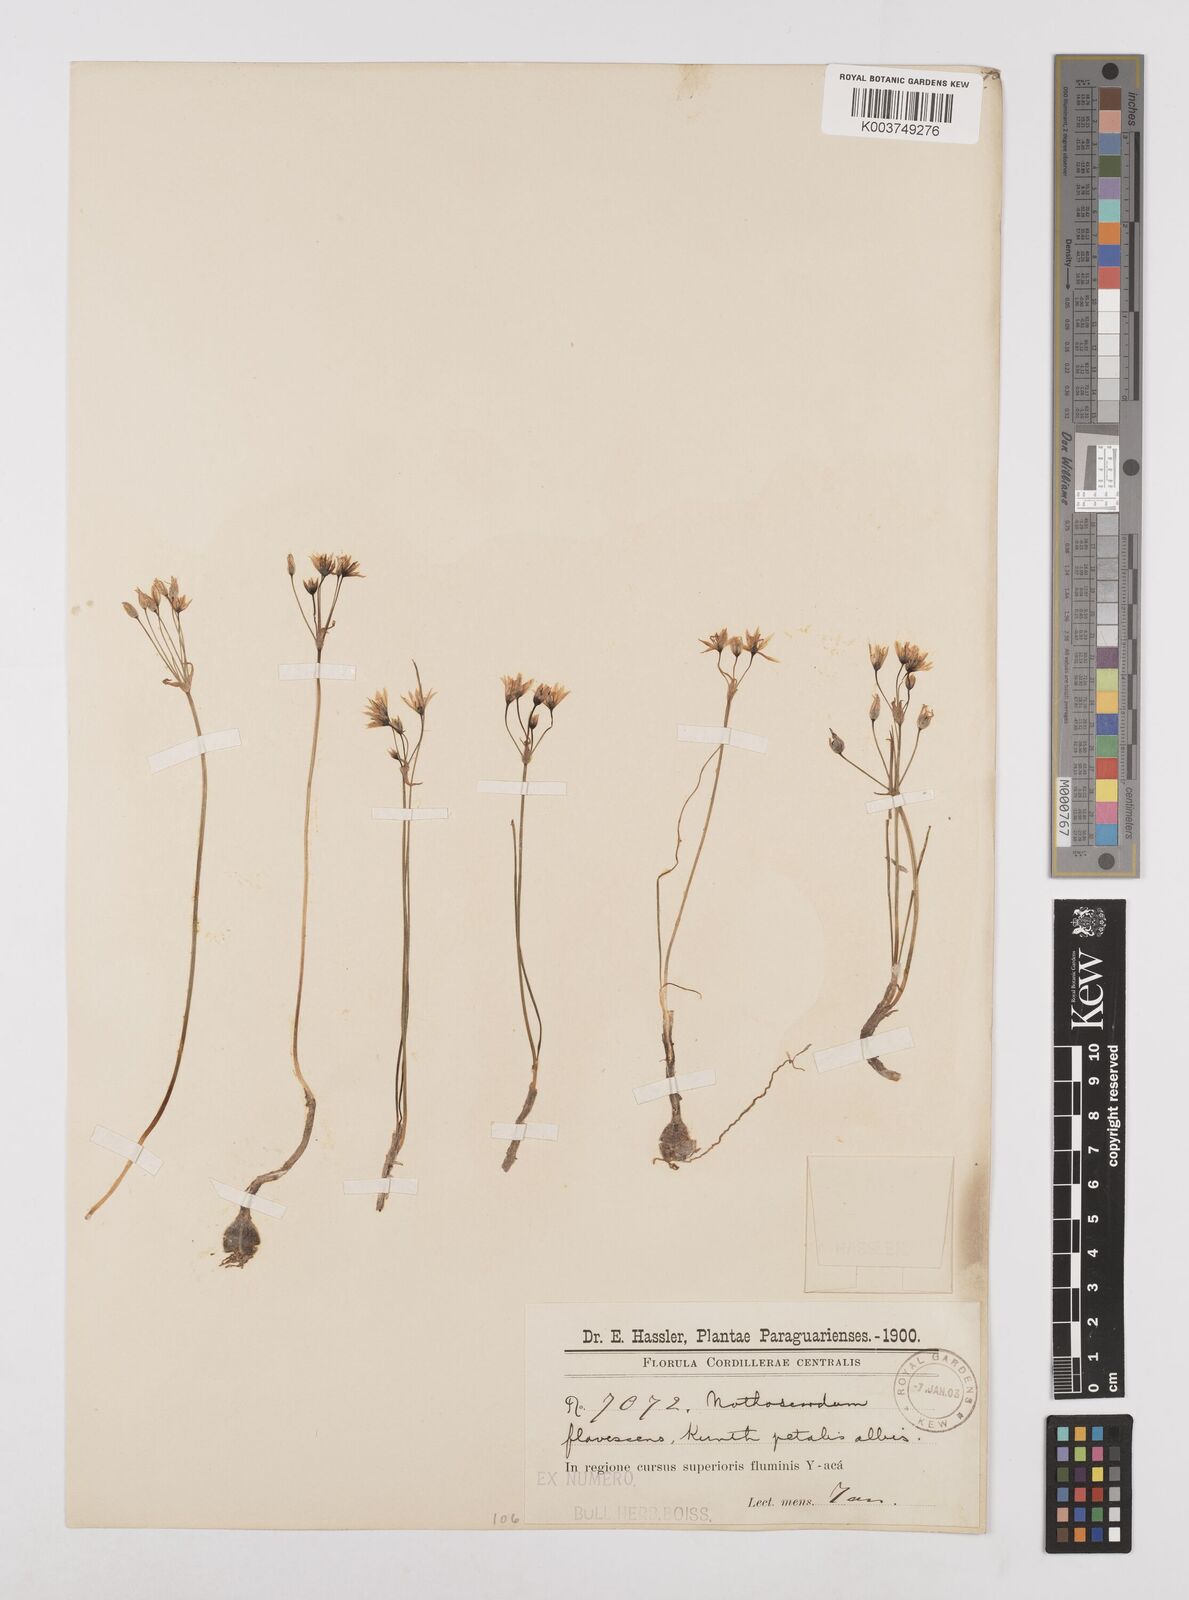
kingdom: Plantae
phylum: Tracheophyta
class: Liliopsida
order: Asparagales
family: Amaryllidaceae
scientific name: Amaryllidaceae
